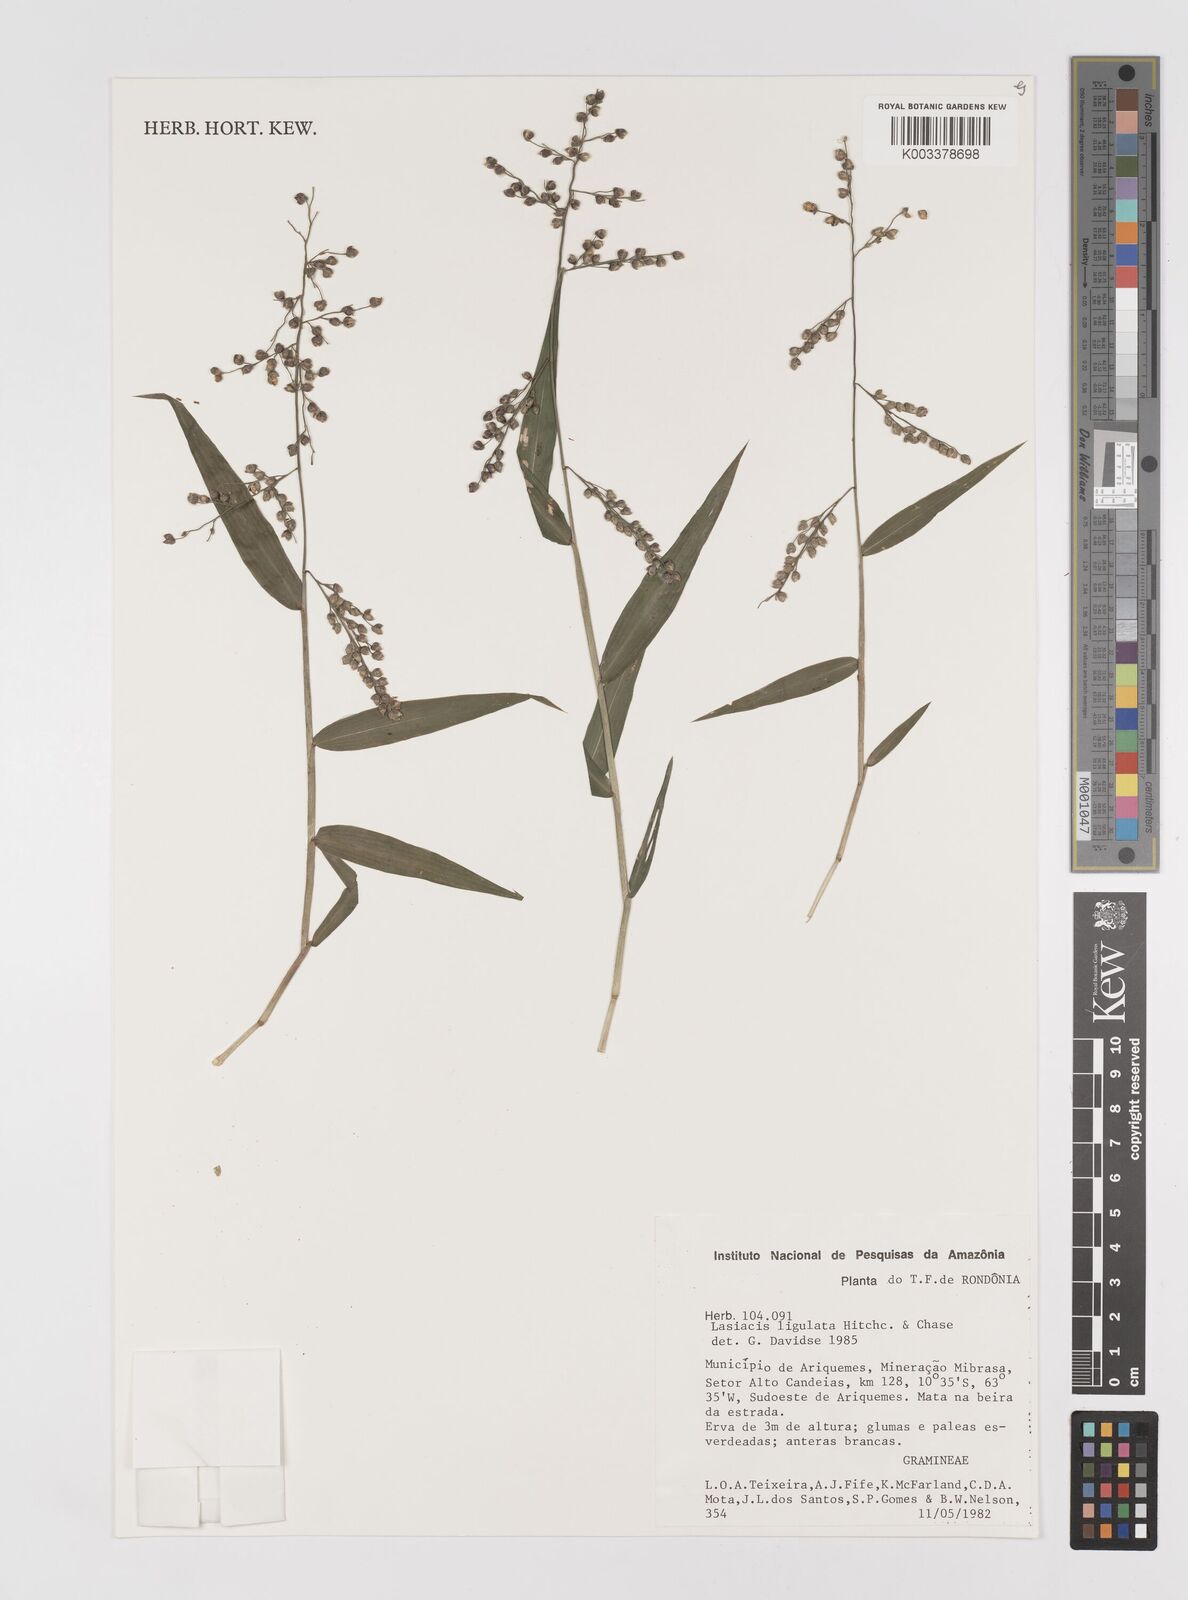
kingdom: Plantae
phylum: Tracheophyta
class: Liliopsida
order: Poales
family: Poaceae
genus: Lasiacis
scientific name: Lasiacis ligulata
